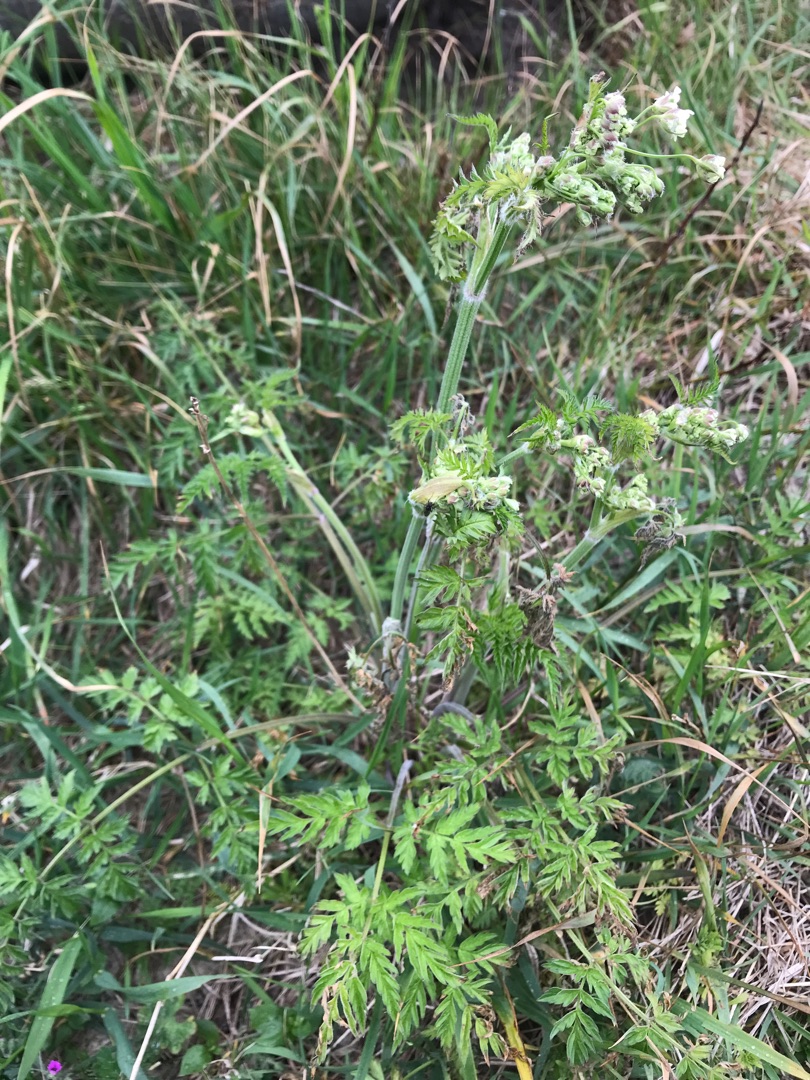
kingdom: Plantae
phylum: Tracheophyta
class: Magnoliopsida
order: Apiales
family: Apiaceae
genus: Anthriscus
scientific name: Anthriscus sylvestris
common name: Vild kørvel
